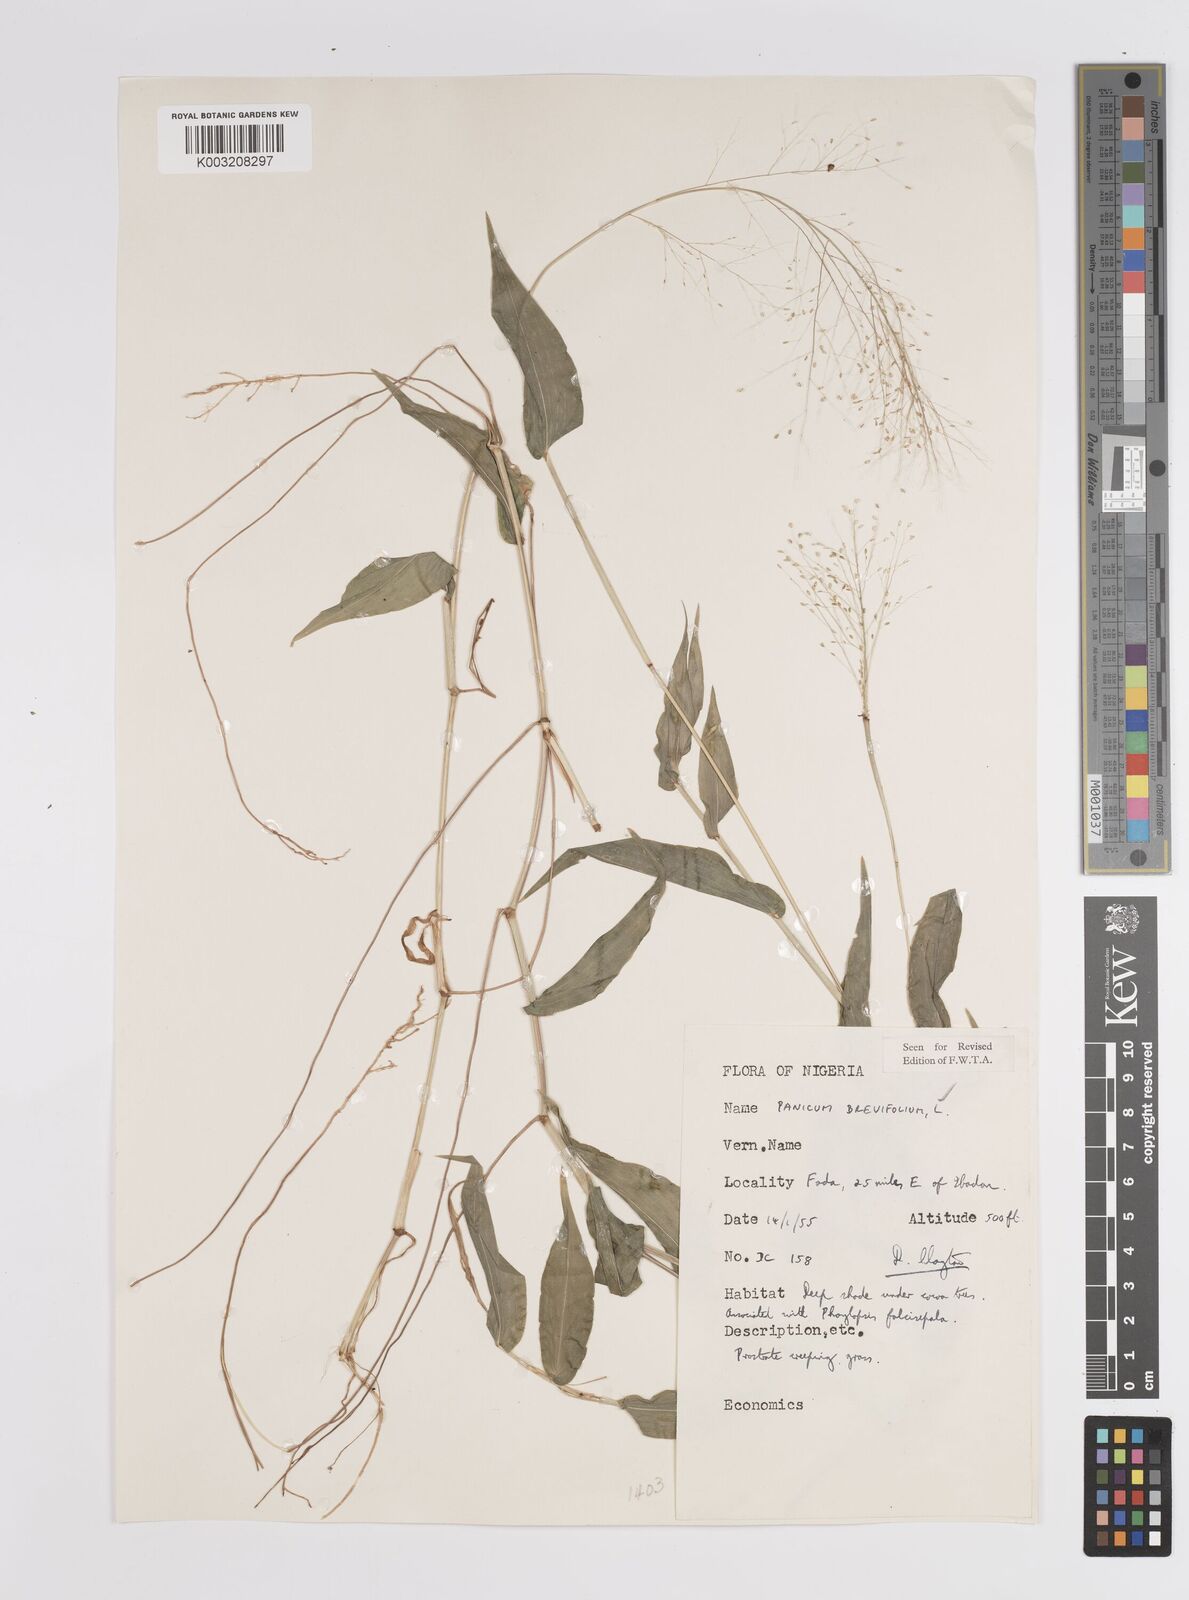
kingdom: Plantae
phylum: Tracheophyta
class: Liliopsida
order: Poales
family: Poaceae
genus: Panicum
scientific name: Panicum brevifolium
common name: Shortleaf panic grass
